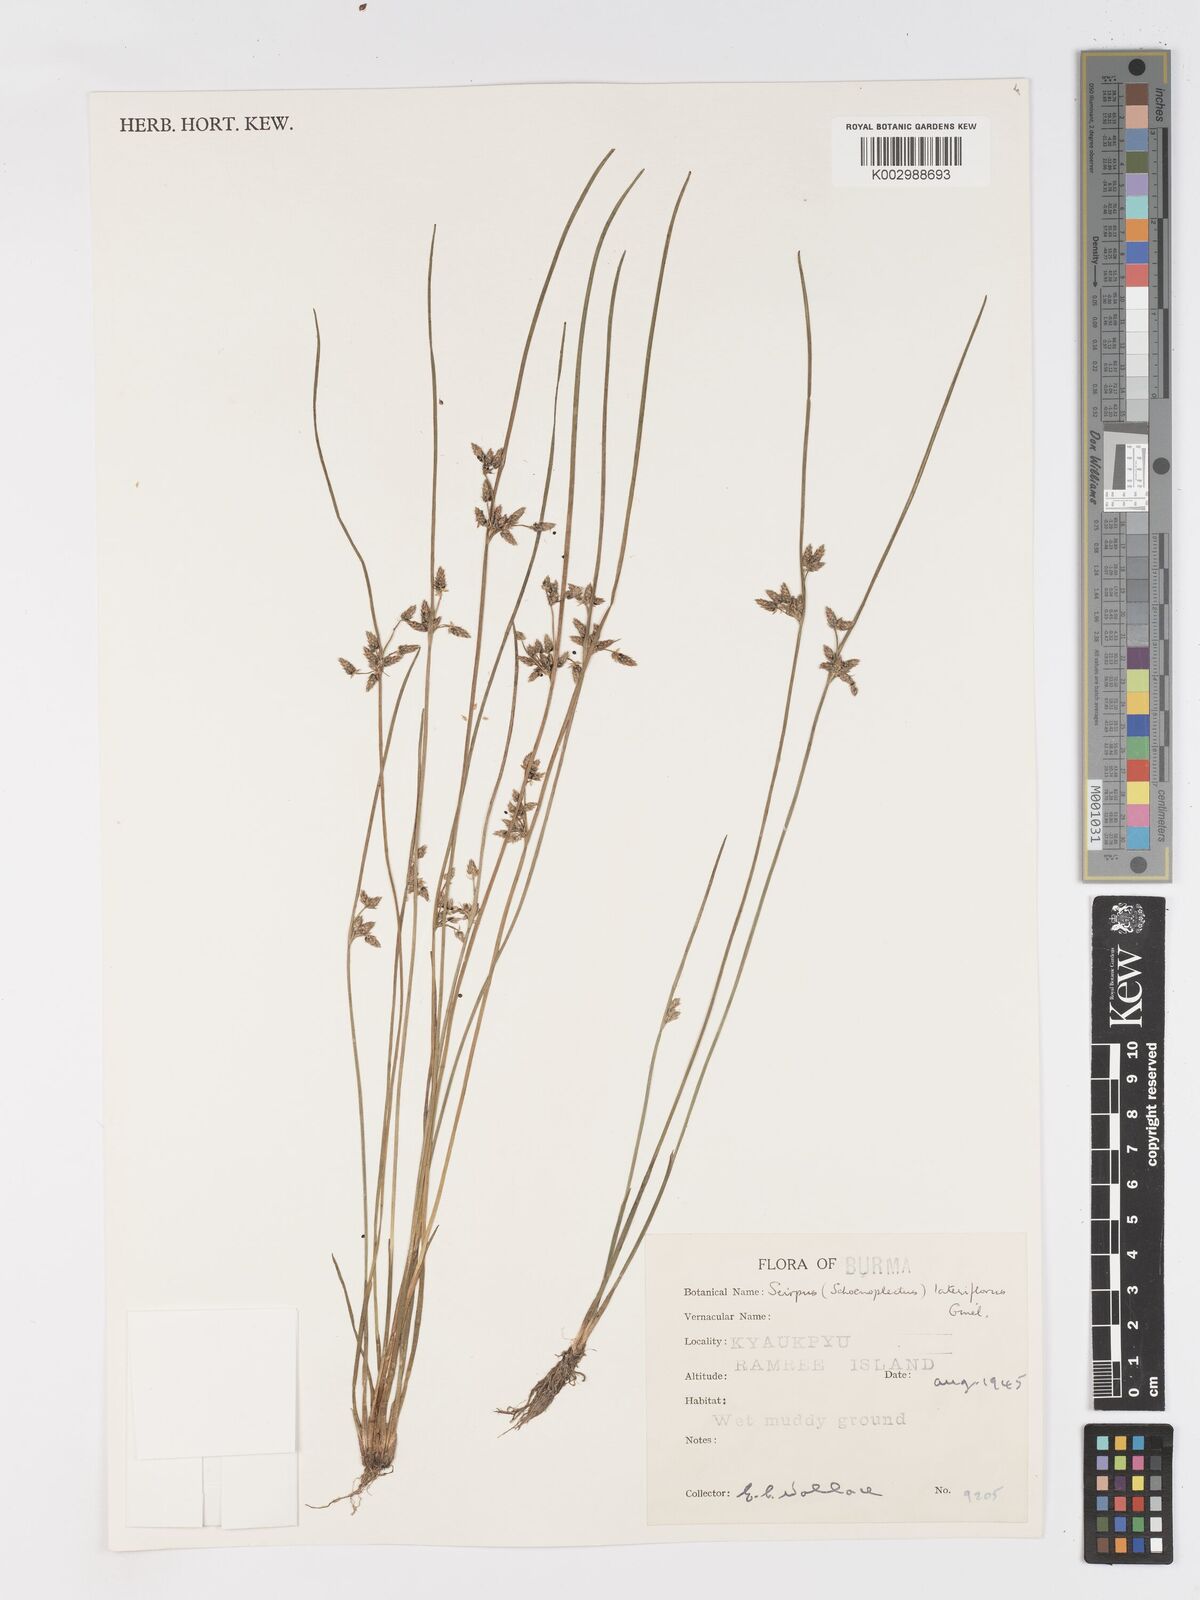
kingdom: Plantae
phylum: Tracheophyta
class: Liliopsida
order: Poales
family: Cyperaceae
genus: Schoenoplectiella
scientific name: Schoenoplectiella lateriflora
